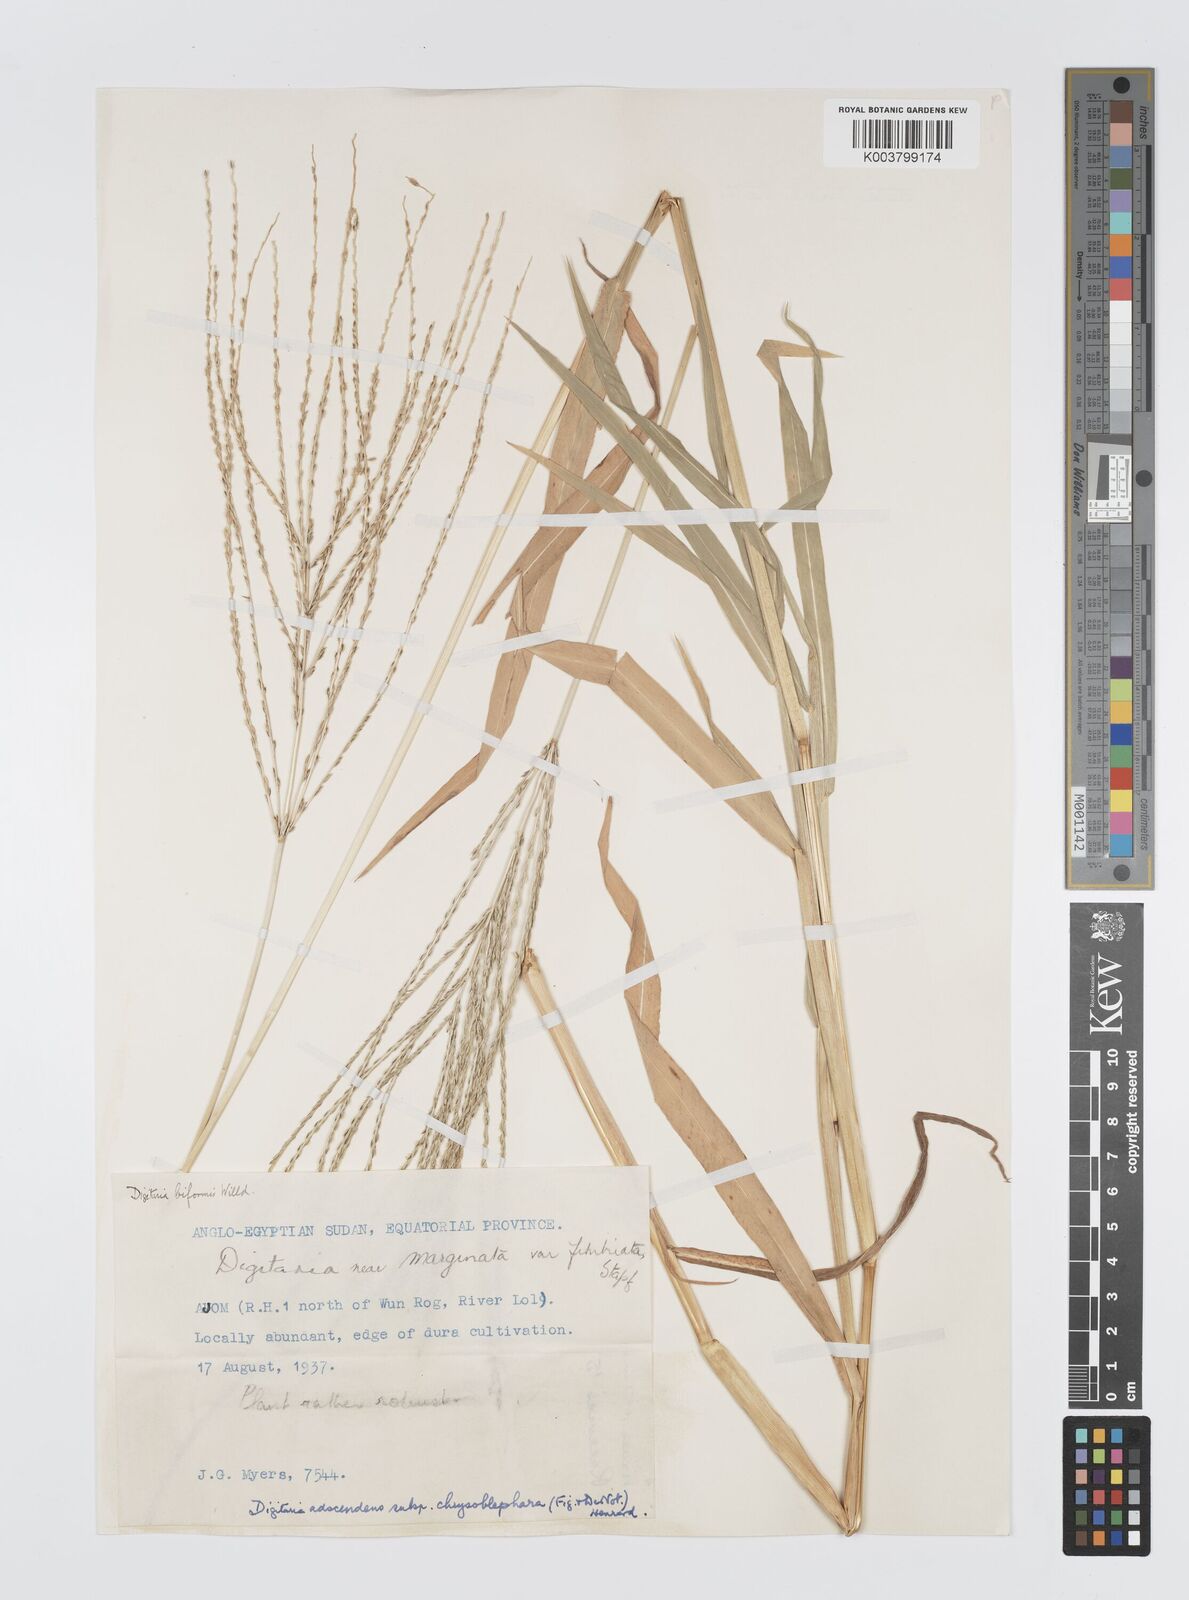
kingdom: Plantae
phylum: Tracheophyta
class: Liliopsida
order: Poales
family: Poaceae
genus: Digitaria
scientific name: Digitaria sanguinalis
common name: Hairy crabgrass
